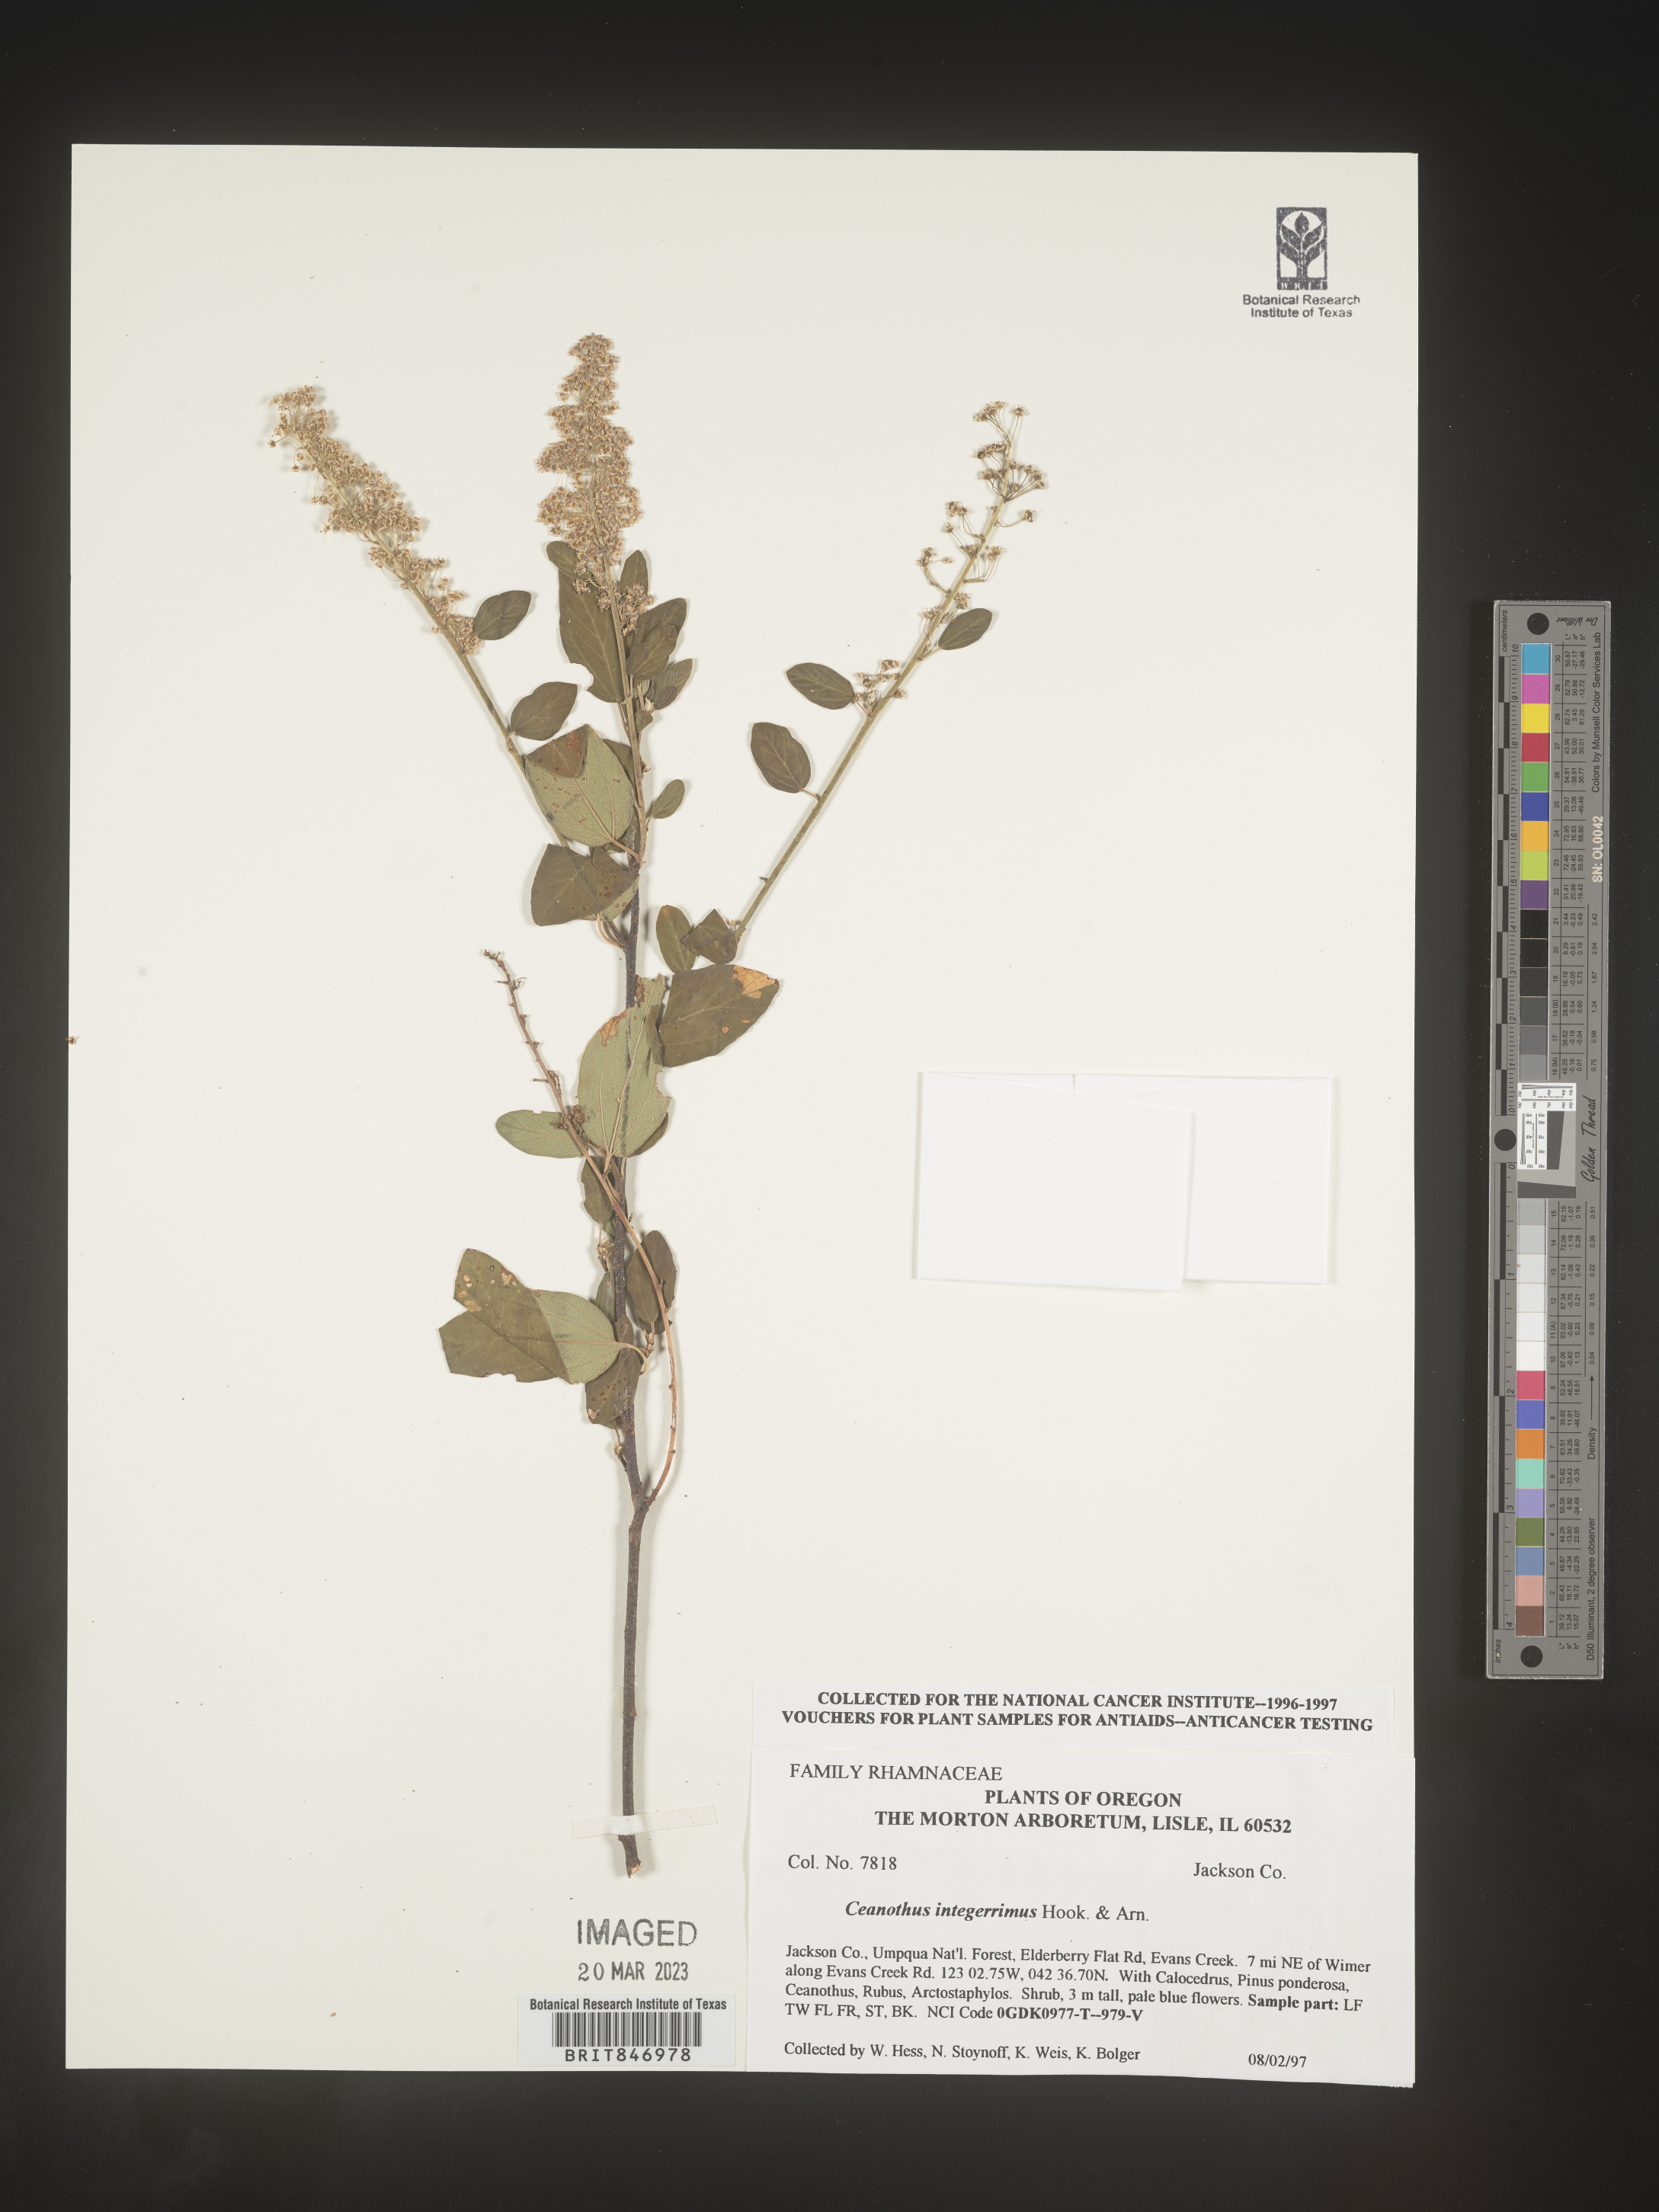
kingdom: Plantae
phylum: Tracheophyta
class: Magnoliopsida
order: Rosales
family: Rhamnaceae
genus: Ceanothus
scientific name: Ceanothus integerrimus
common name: Deerbrush ceanothus
